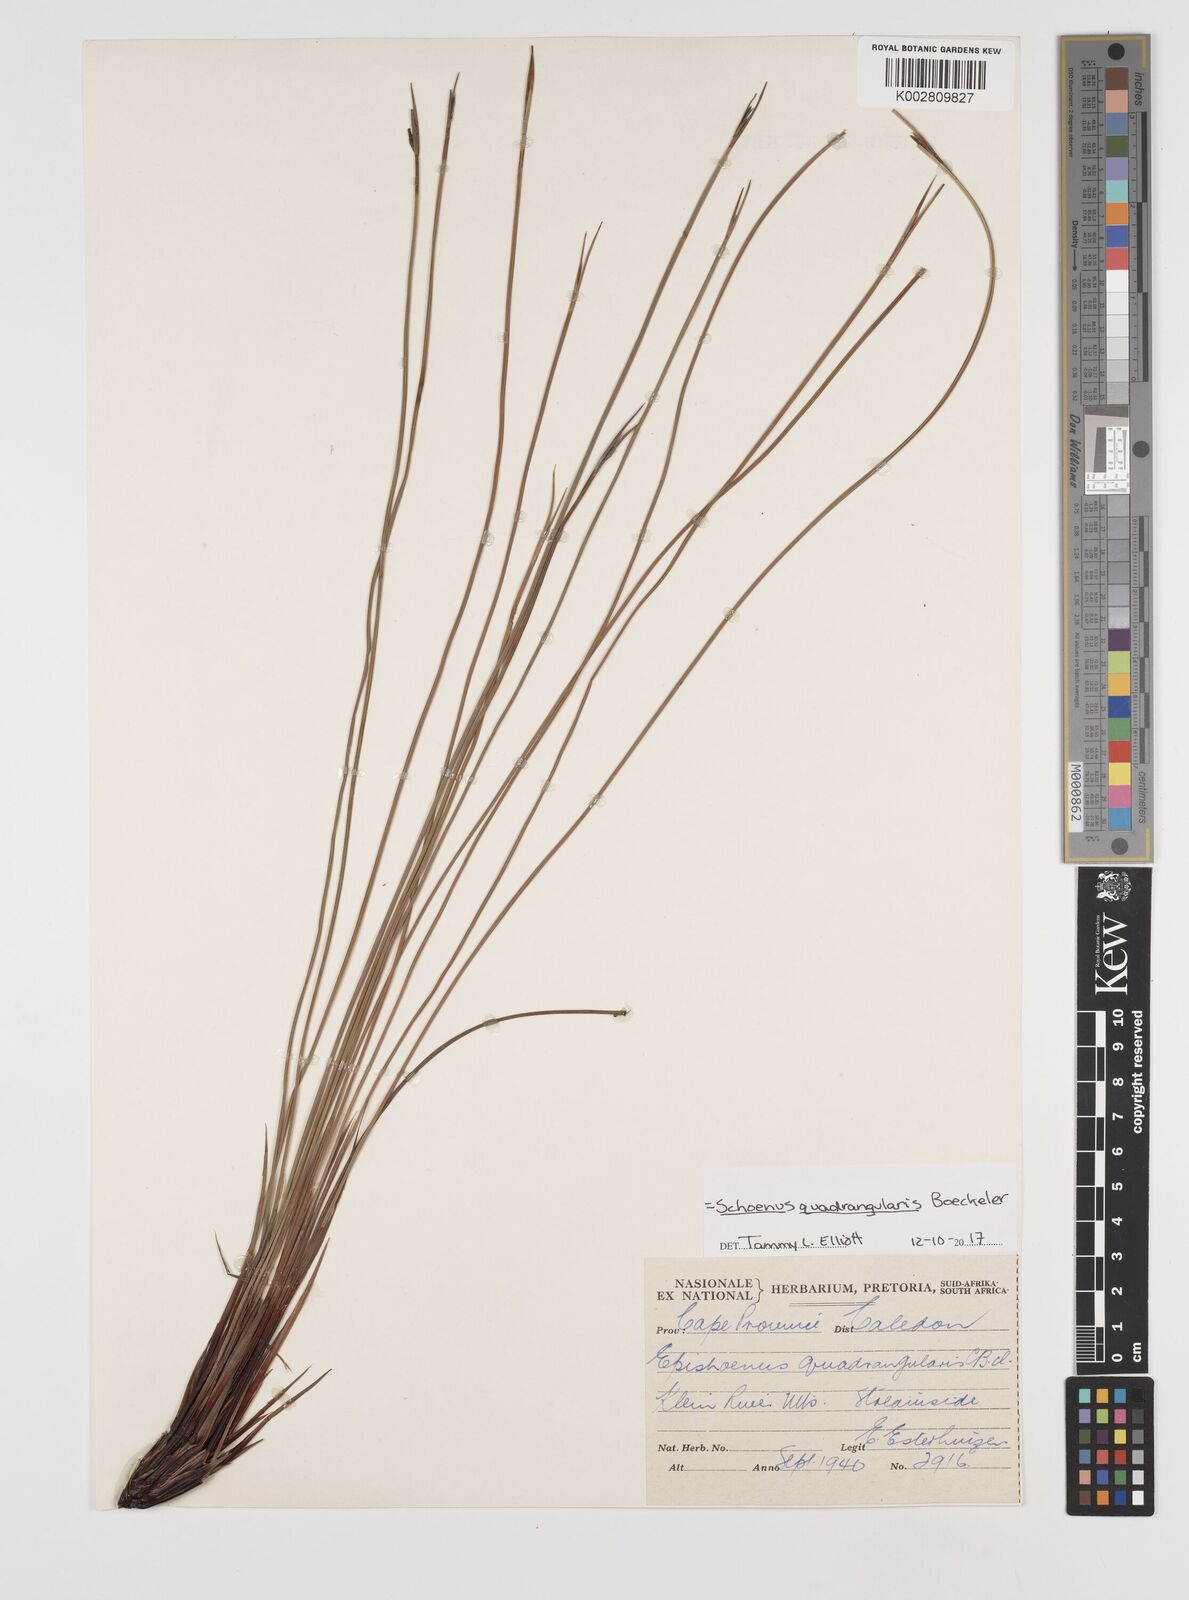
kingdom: Plantae
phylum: Tracheophyta
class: Liliopsida
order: Poales
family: Cyperaceae
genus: Schoenus
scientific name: Schoenus quadrangularis
